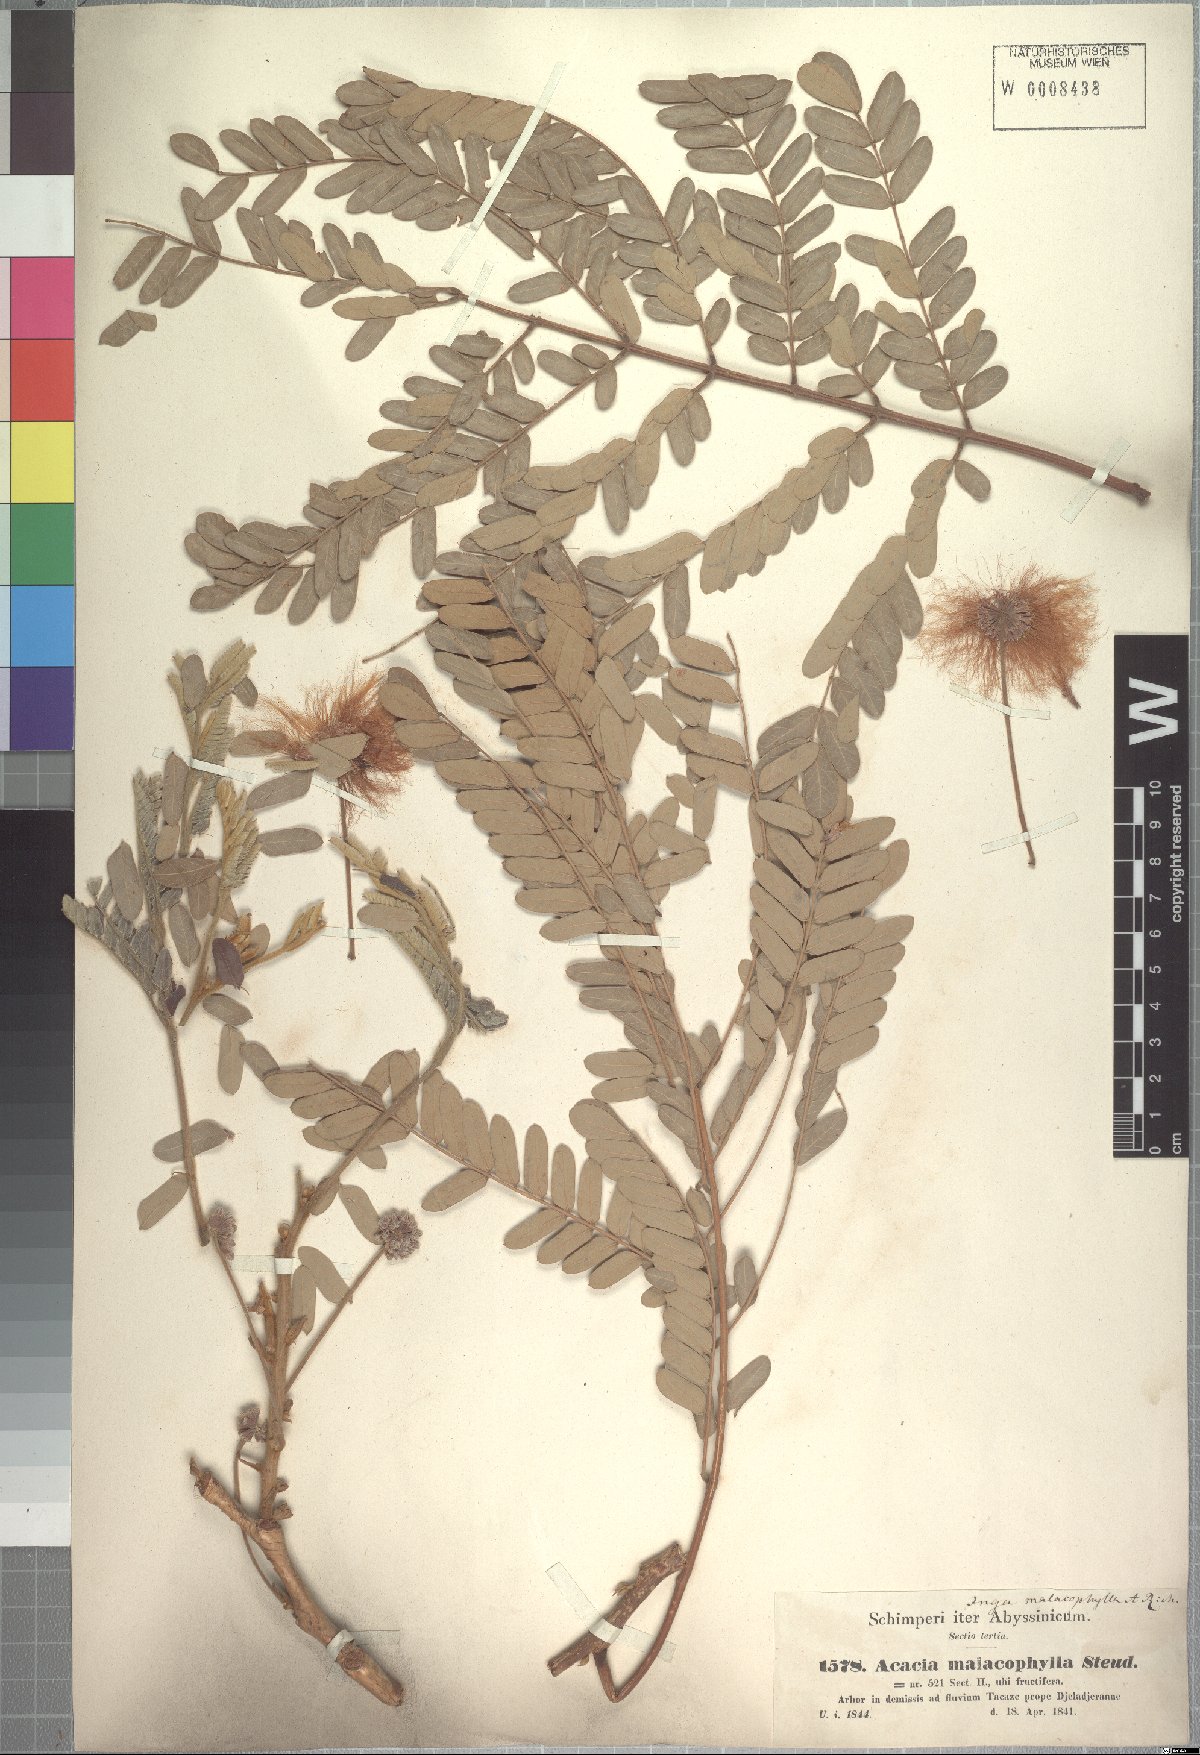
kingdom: Plantae
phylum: Tracheophyta
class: Magnoliopsida
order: Fabales
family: Fabaceae
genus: Albizia
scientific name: Albizia malacophylla
